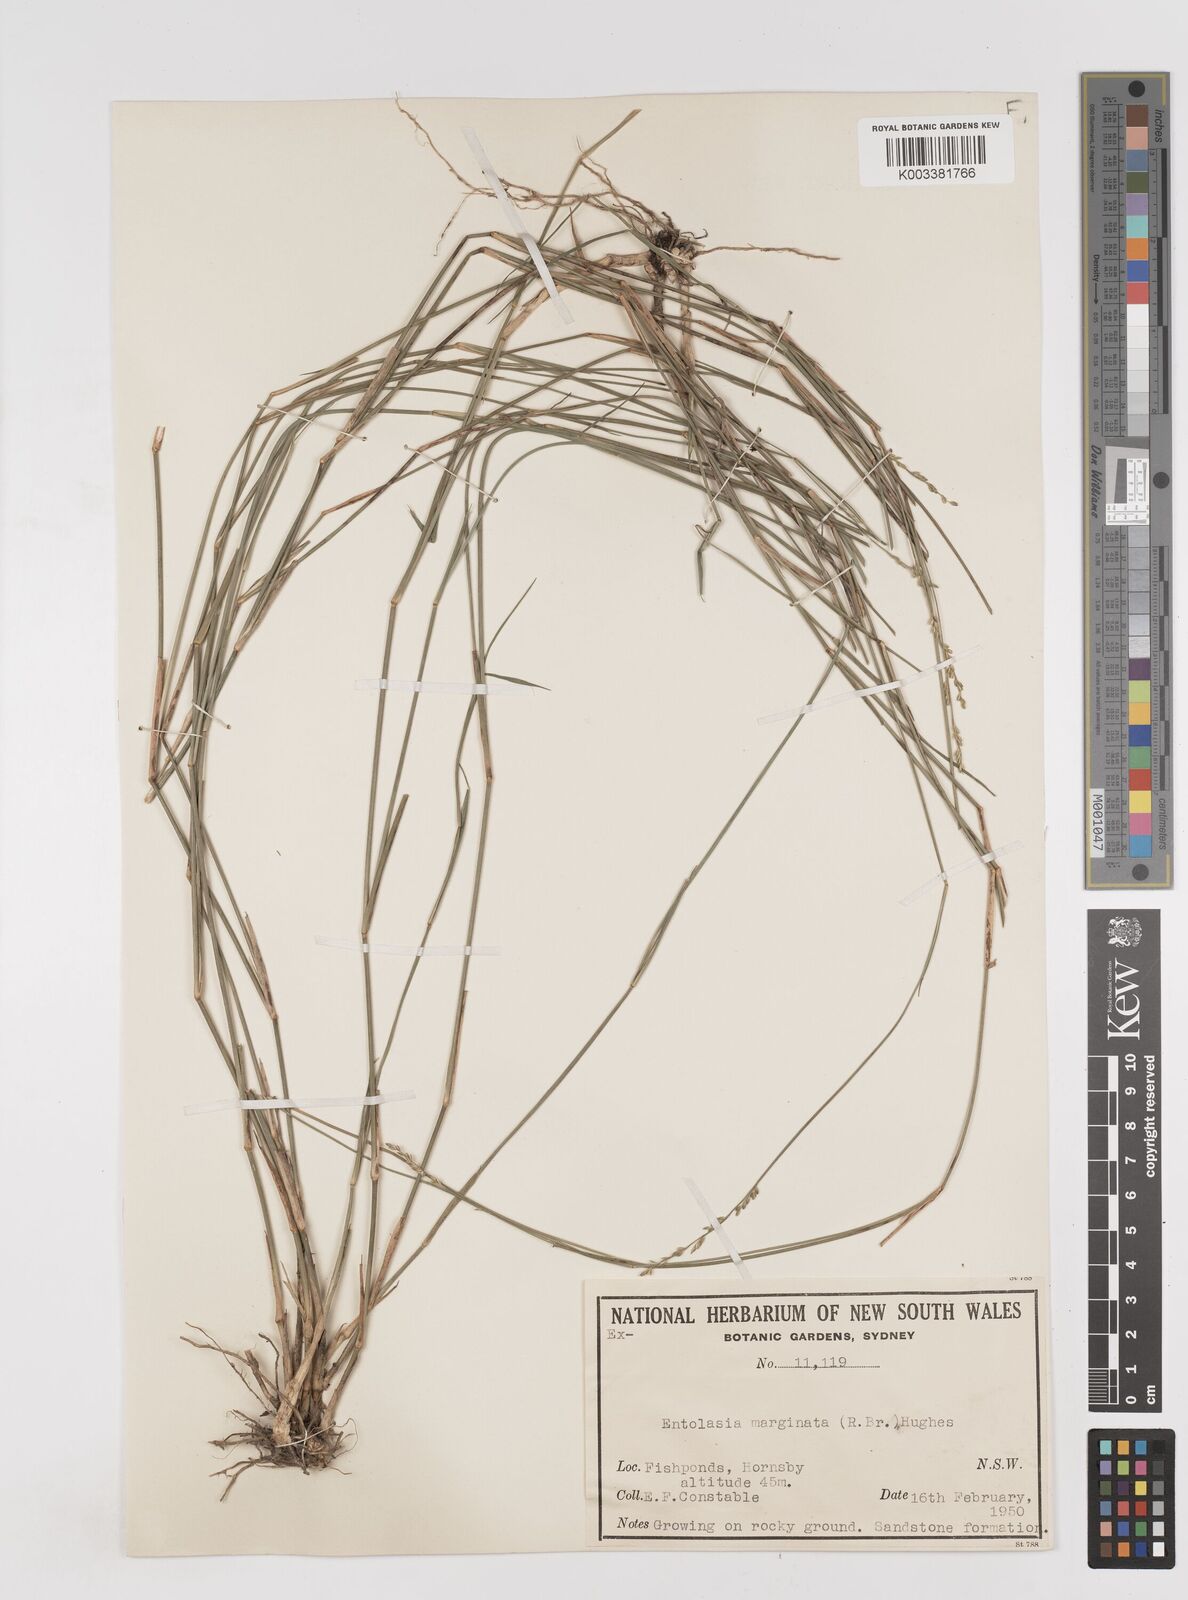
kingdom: Plantae
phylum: Tracheophyta
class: Liliopsida
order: Poales
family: Poaceae
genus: Entolasia
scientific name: Entolasia stricta
